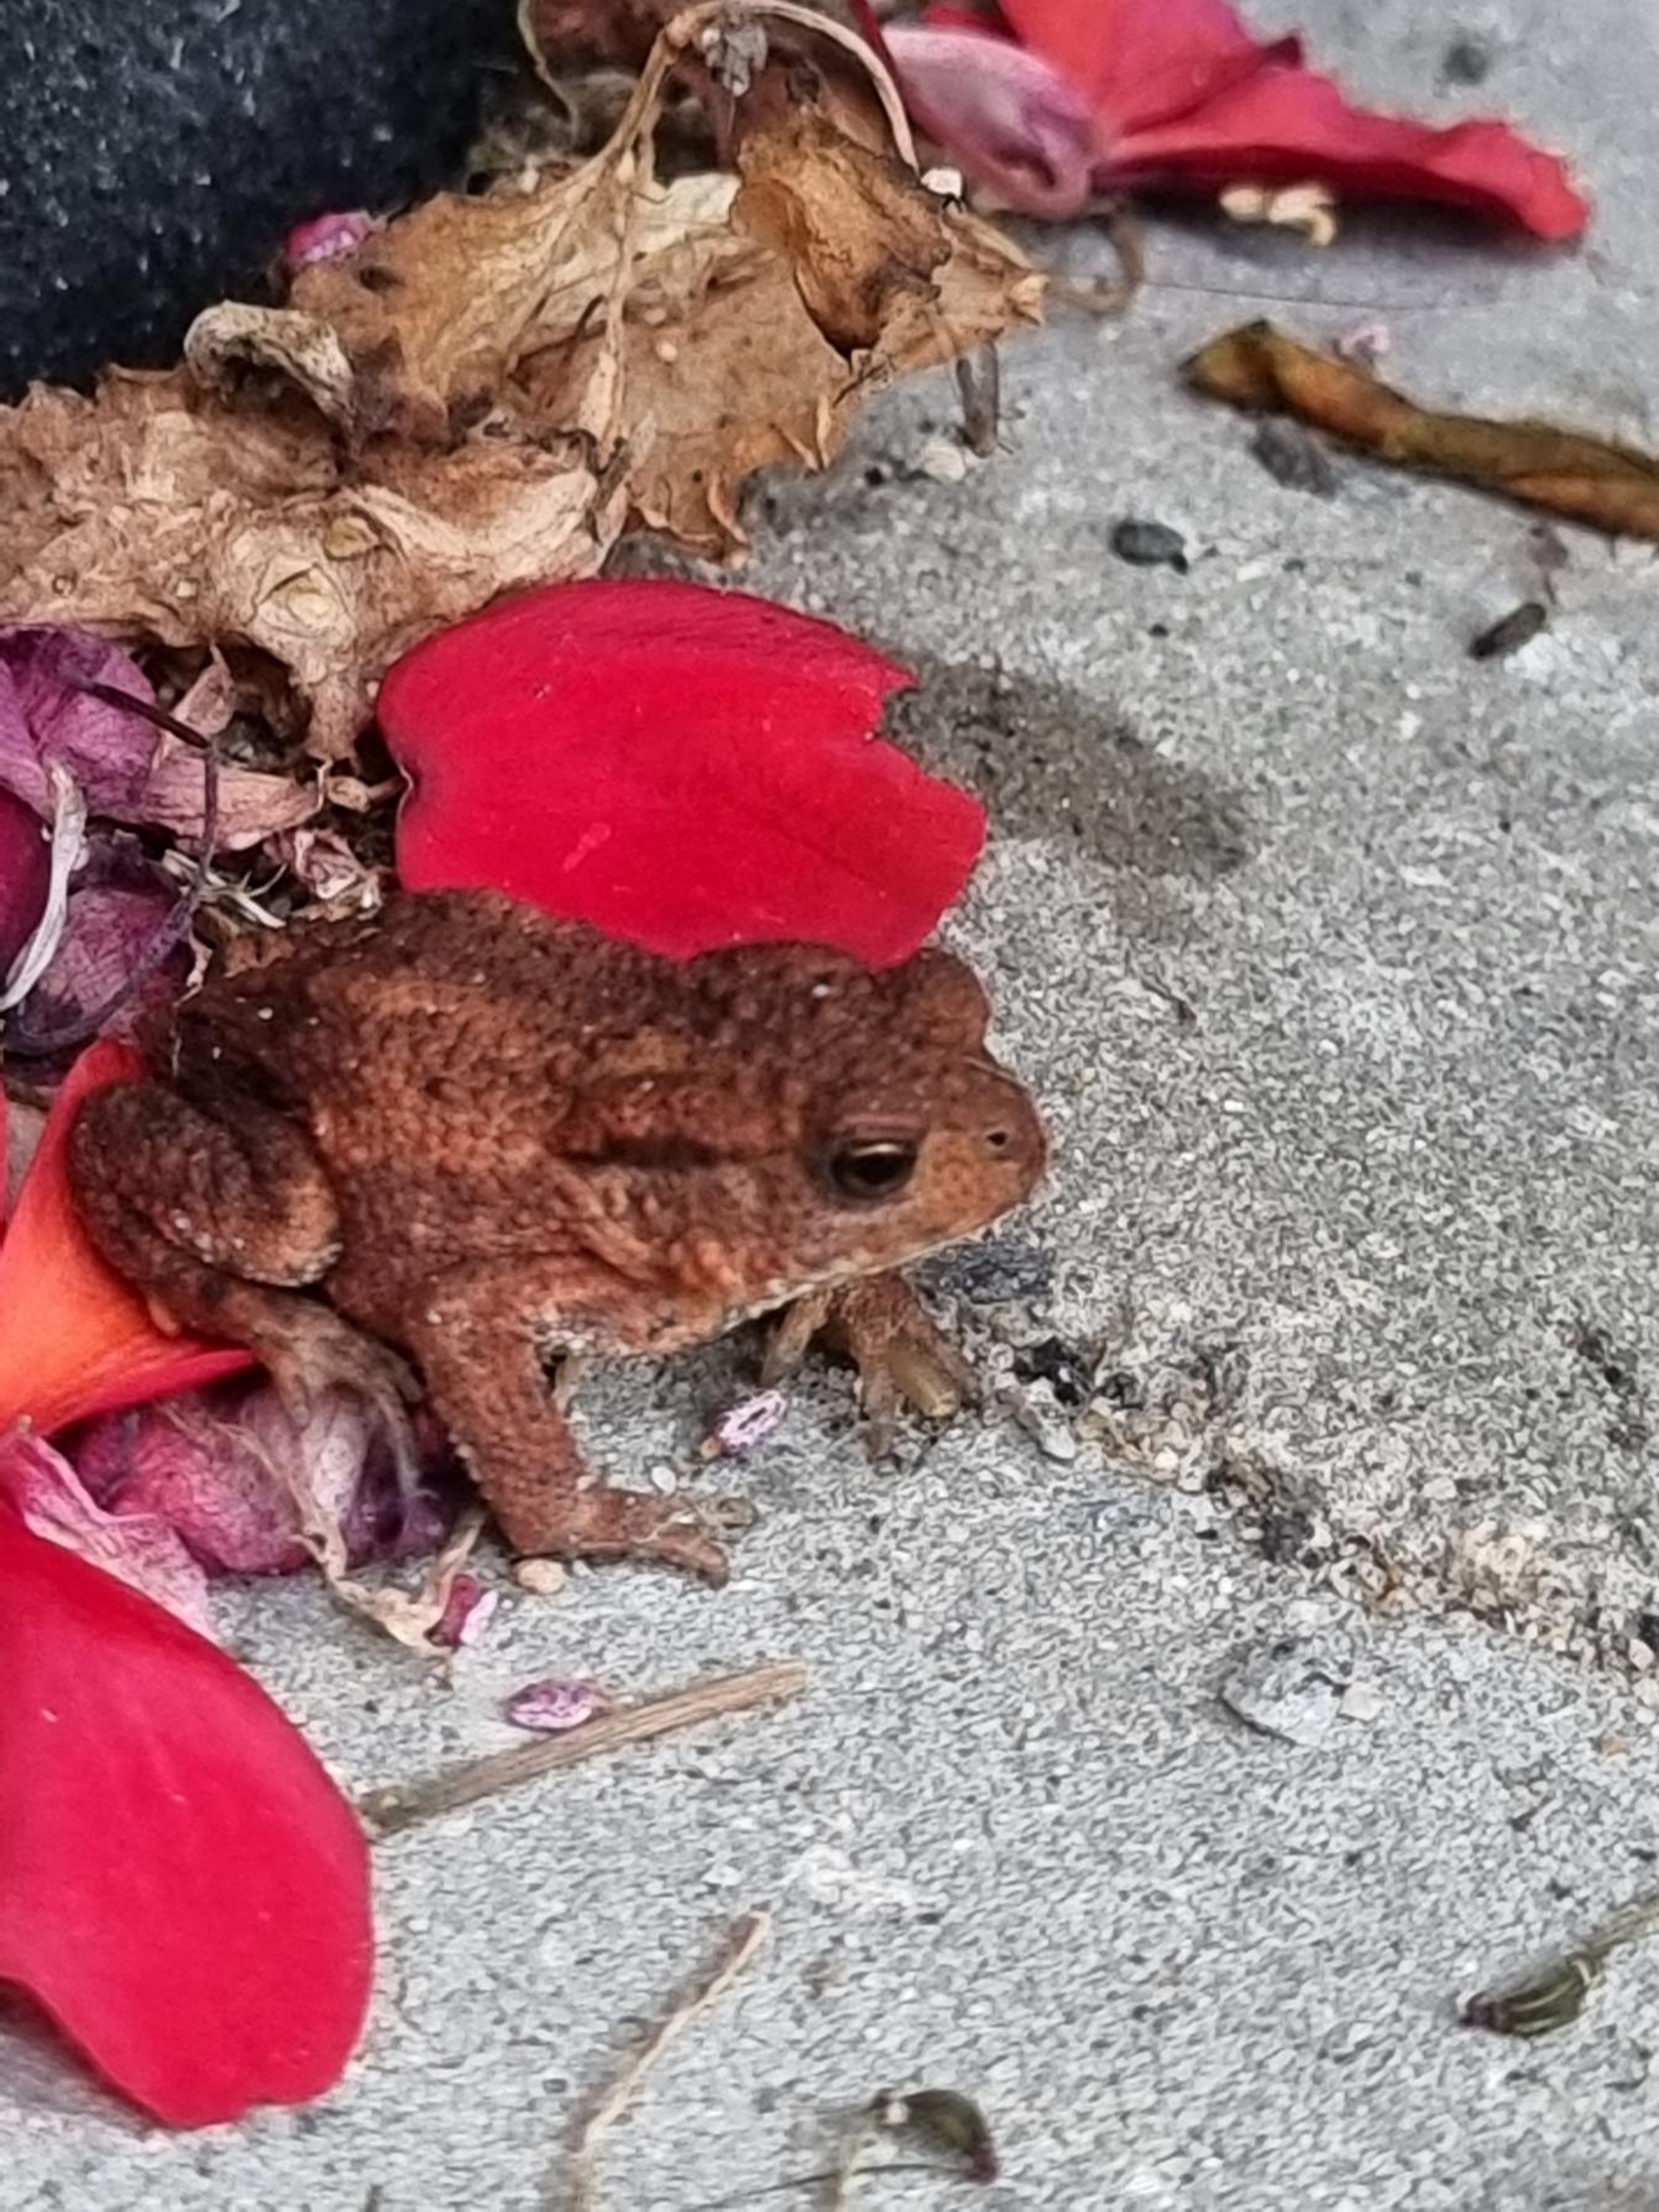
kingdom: Animalia
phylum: Chordata
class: Amphibia
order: Anura
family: Bufonidae
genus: Bufo
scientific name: Bufo bufo
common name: Skrubtudse
